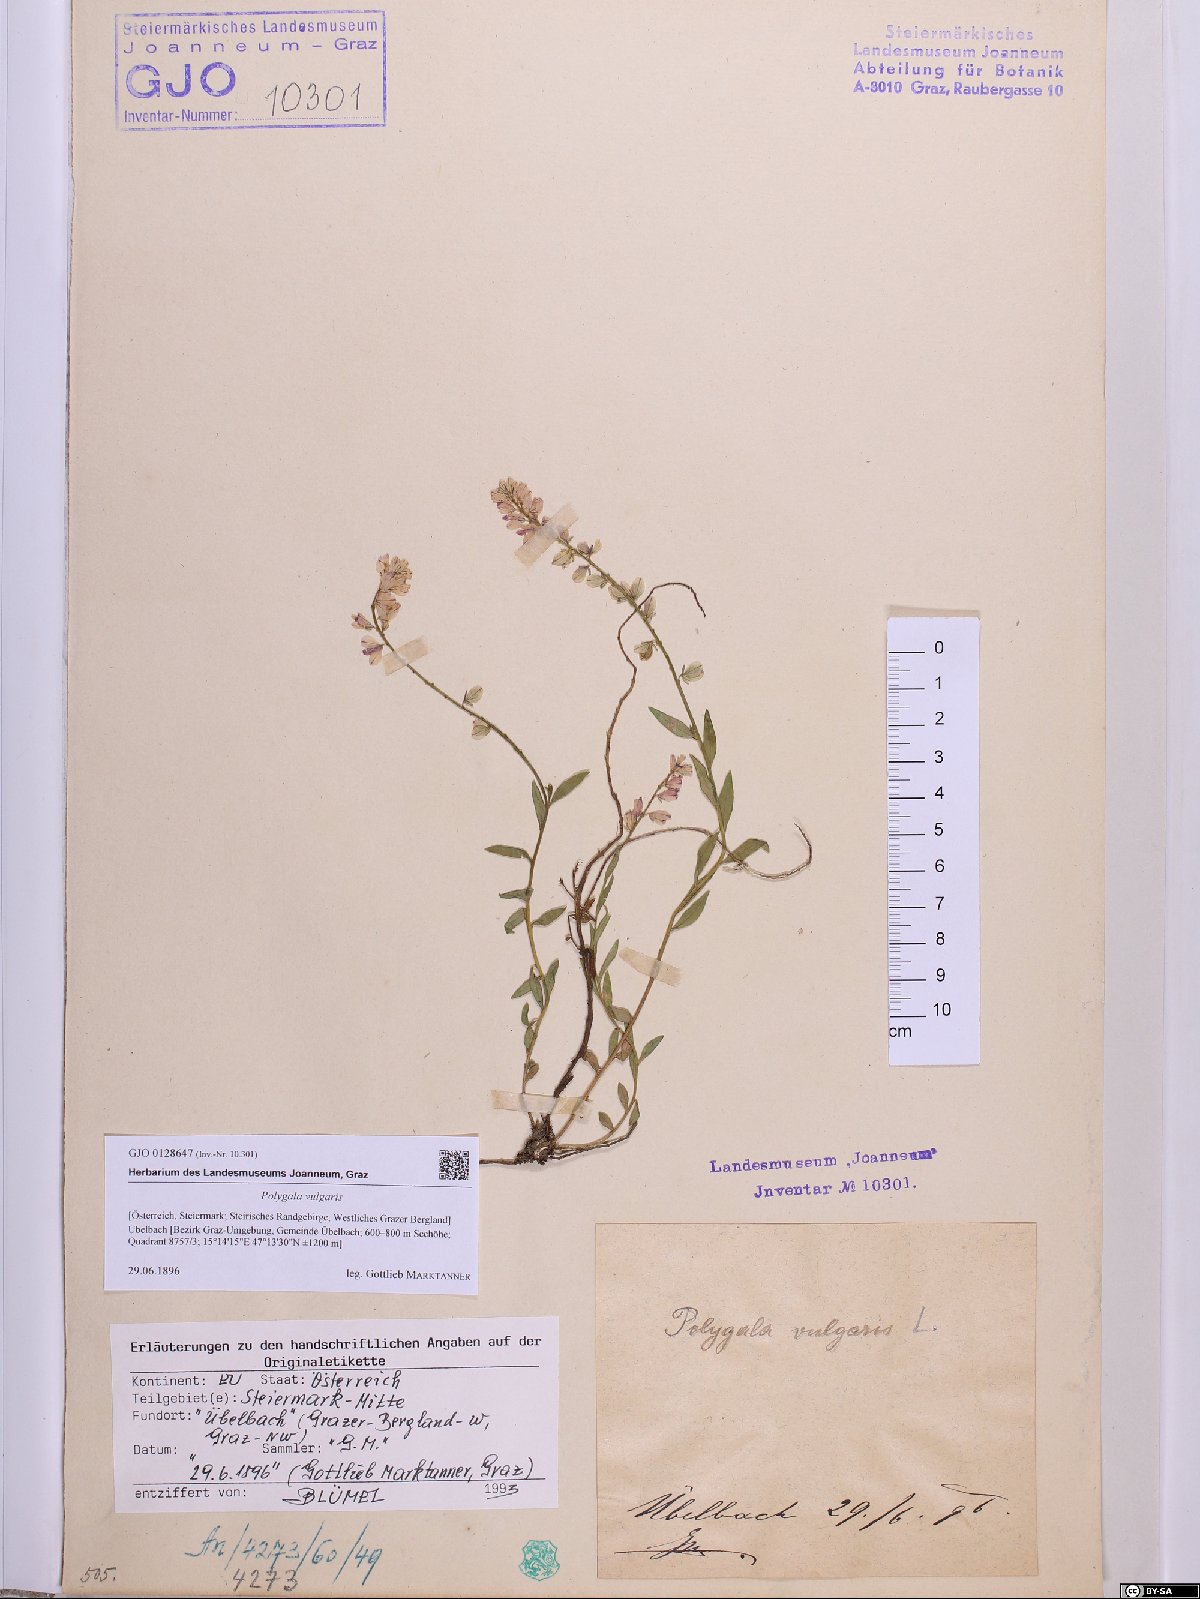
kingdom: Plantae
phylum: Tracheophyta
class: Magnoliopsida
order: Fabales
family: Polygalaceae
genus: Polygala
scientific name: Polygala vulgaris
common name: Common milkwort
